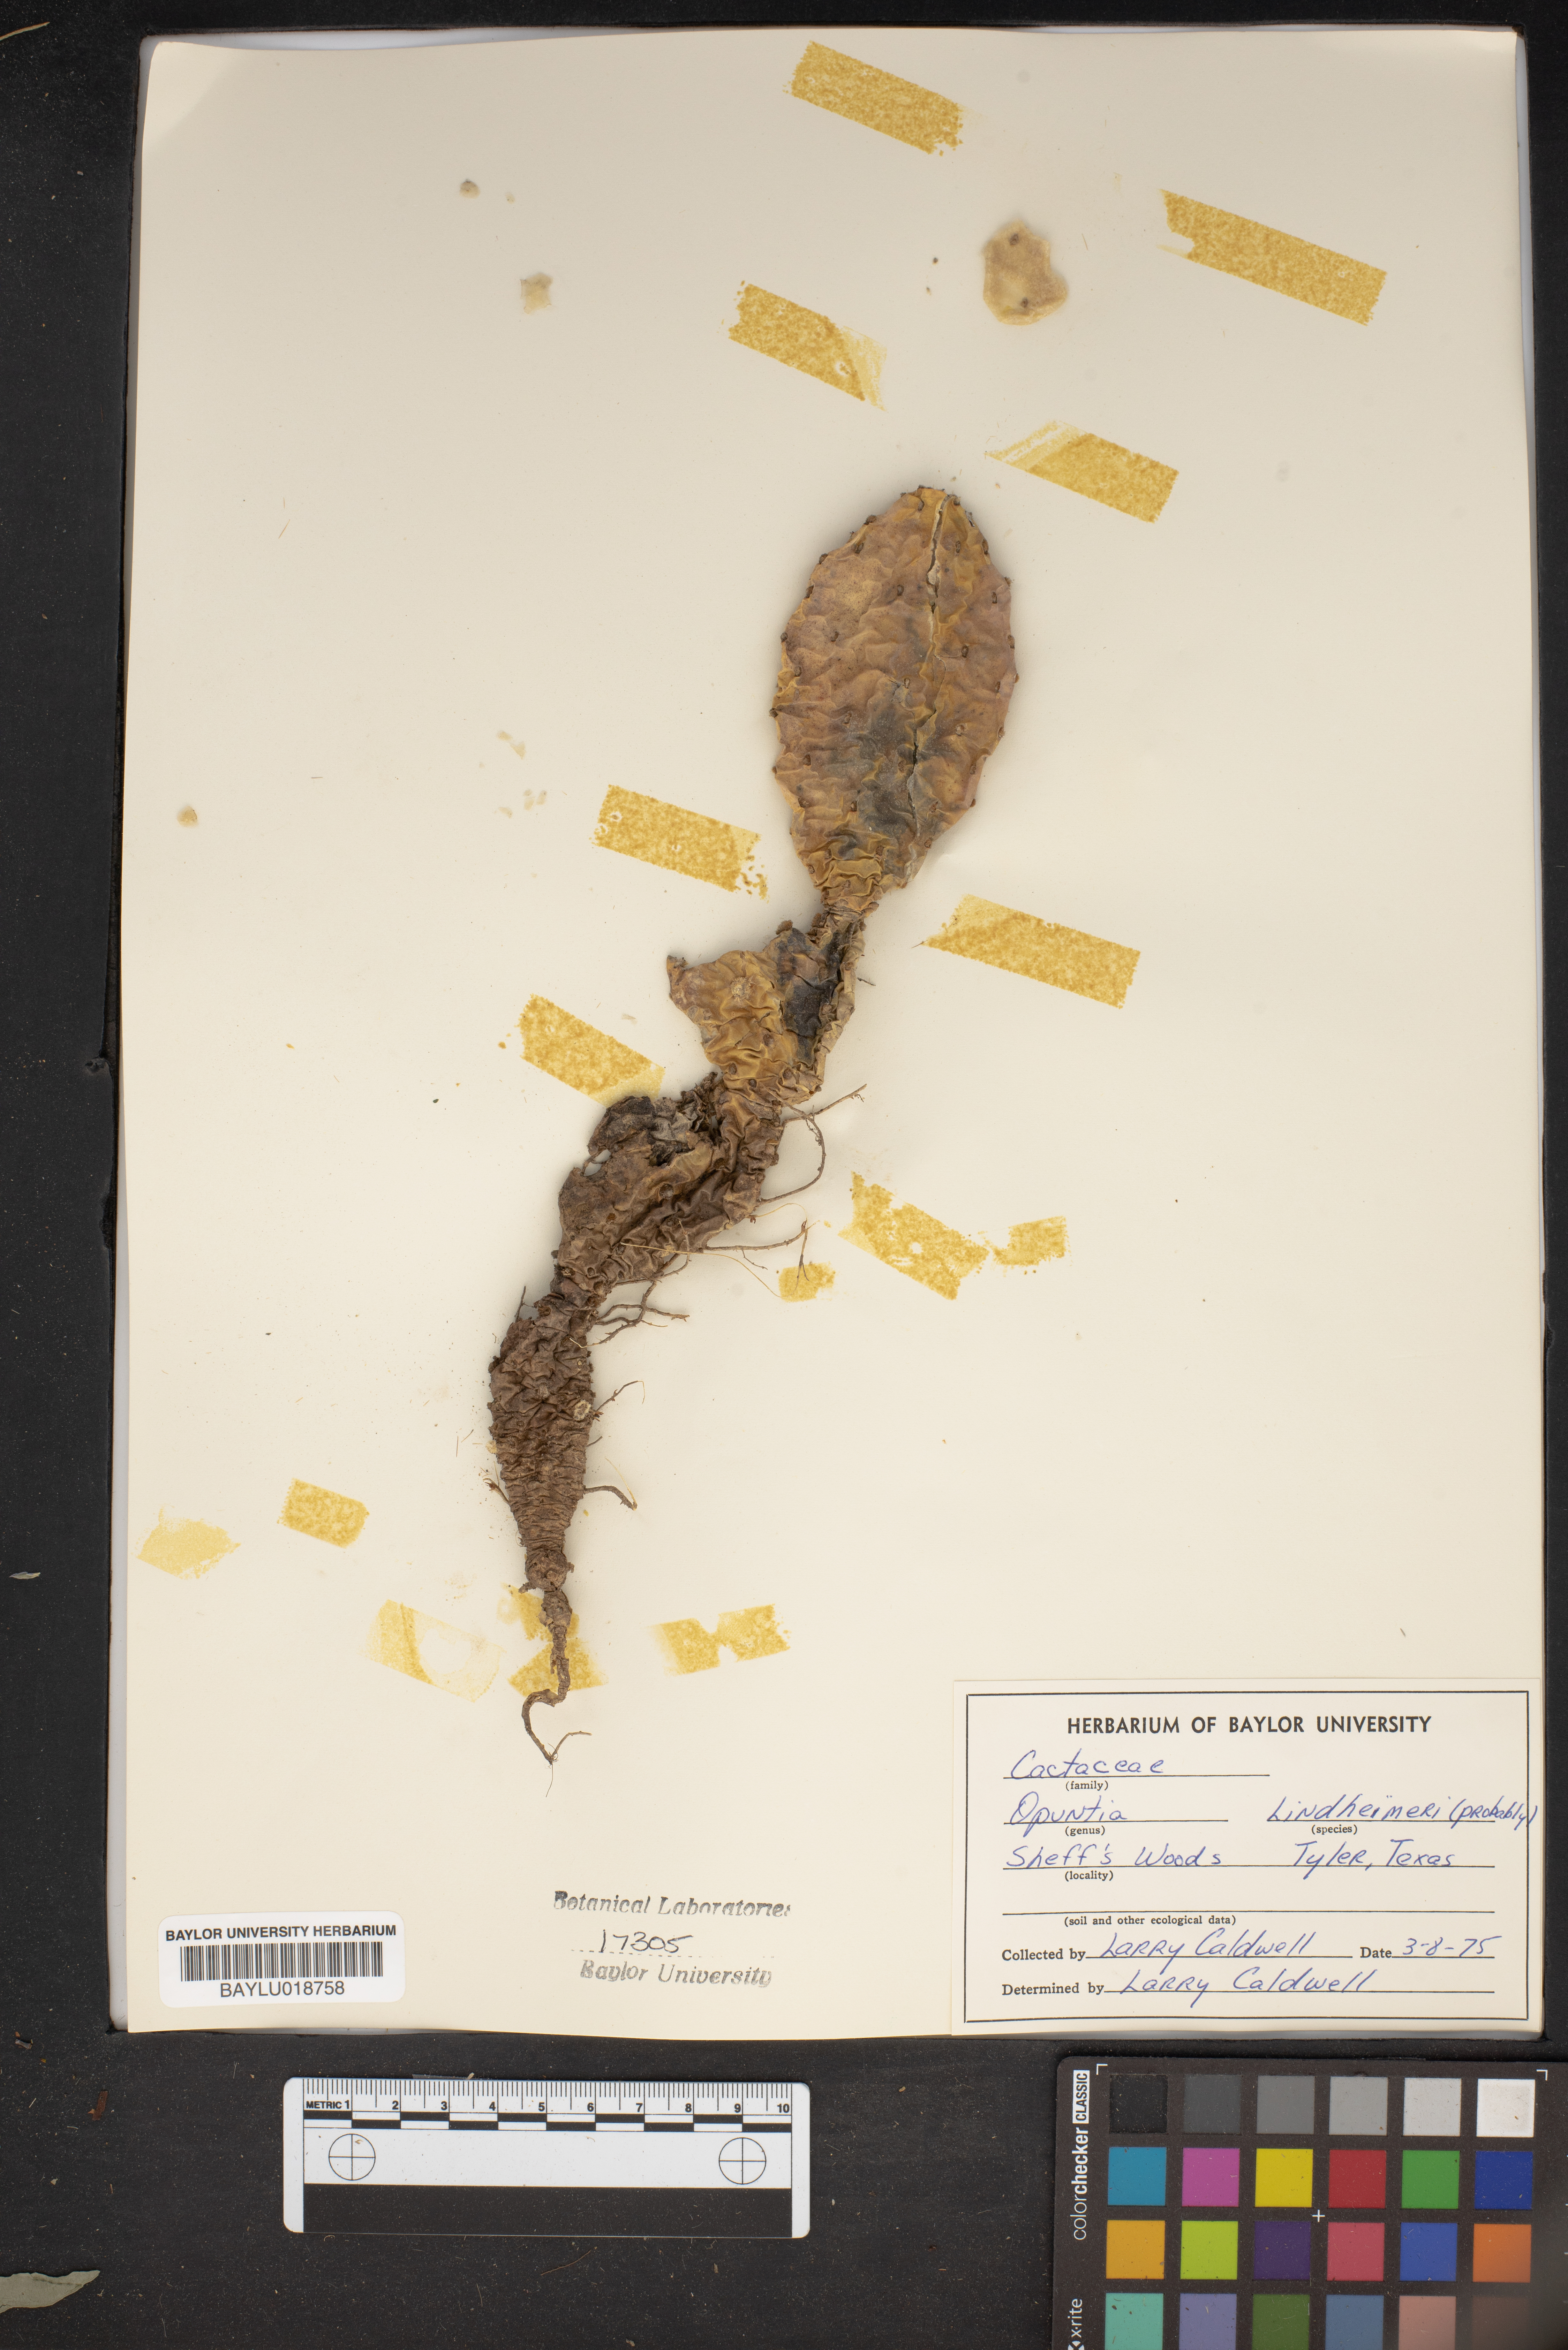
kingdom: Plantae
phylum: Tracheophyta
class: Magnoliopsida
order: Caryophyllales
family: Cactaceae
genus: Opuntia
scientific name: Opuntia engelmannii
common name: Cactus-apple
